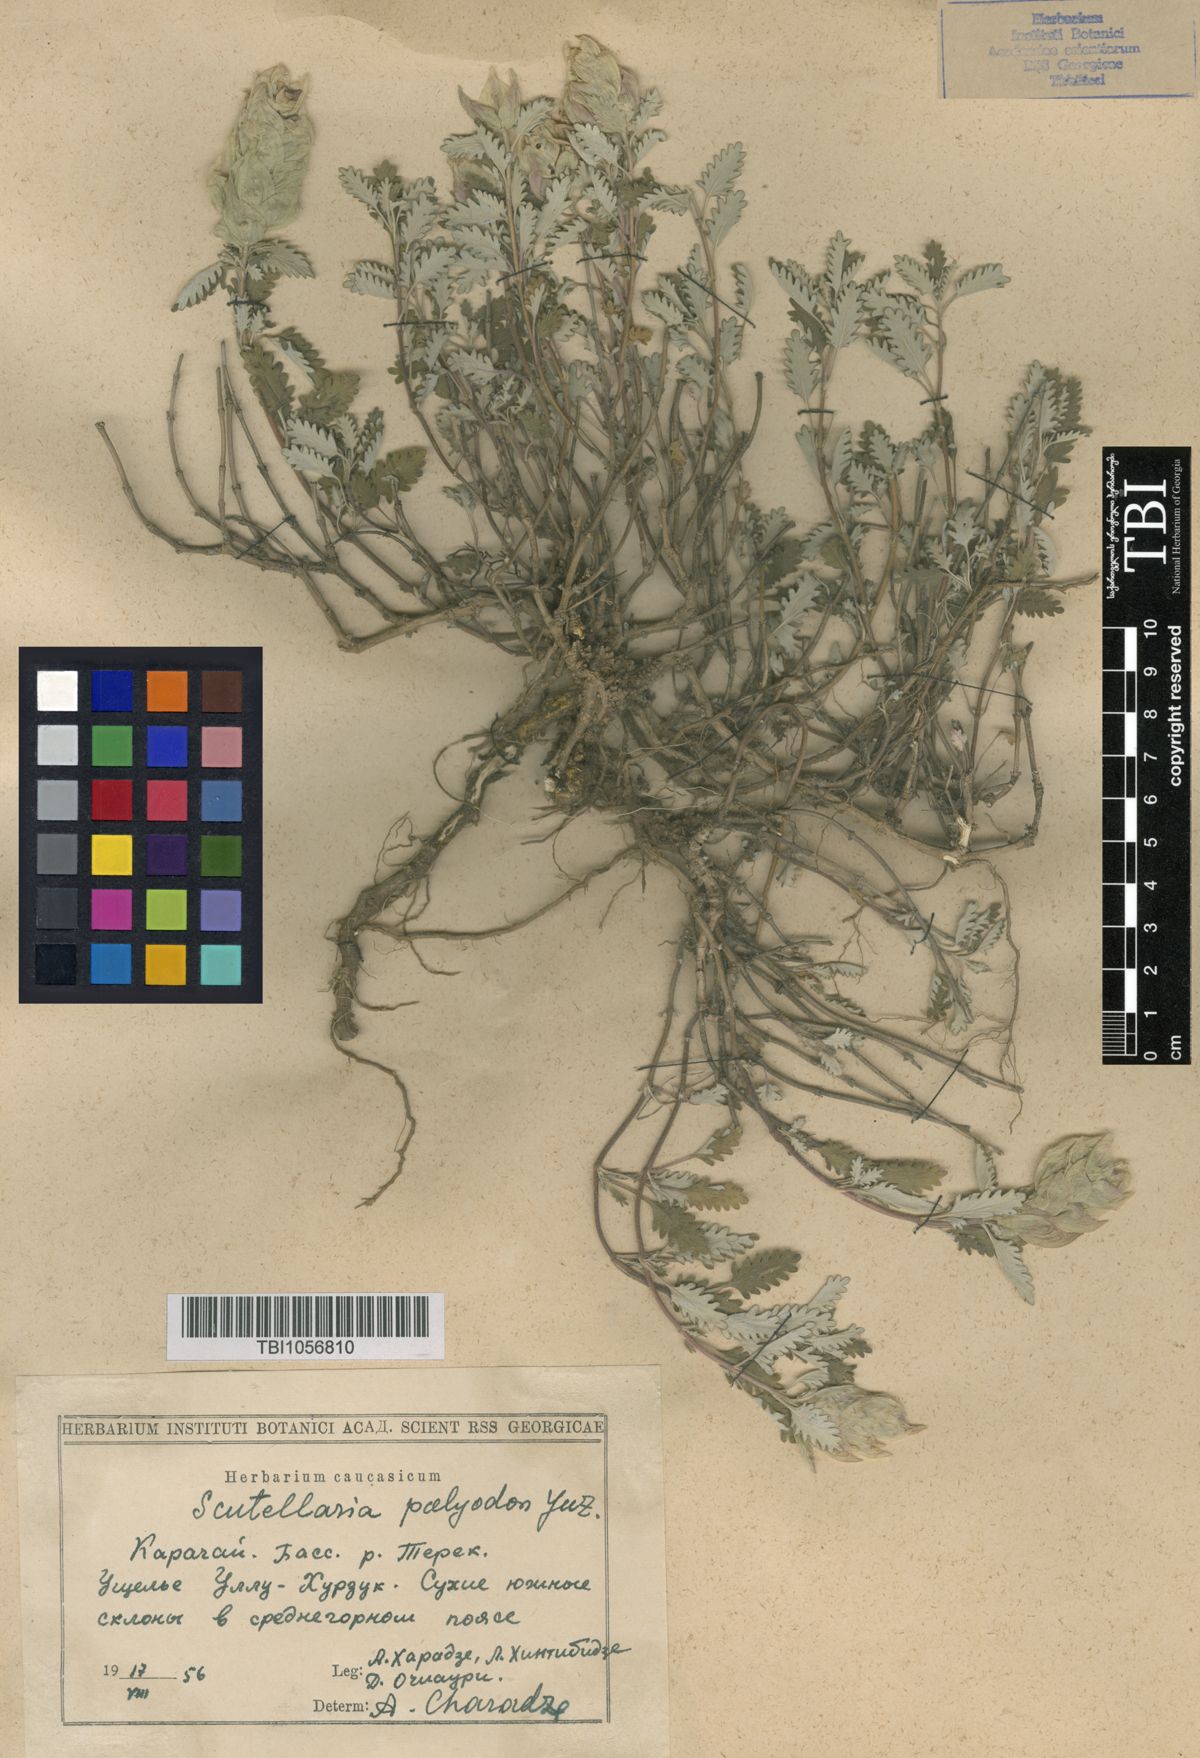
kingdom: Plantae
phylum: Tracheophyta
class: Magnoliopsida
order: Lamiales
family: Lamiaceae
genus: Scutellaria
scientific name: Scutellaria caucasica
